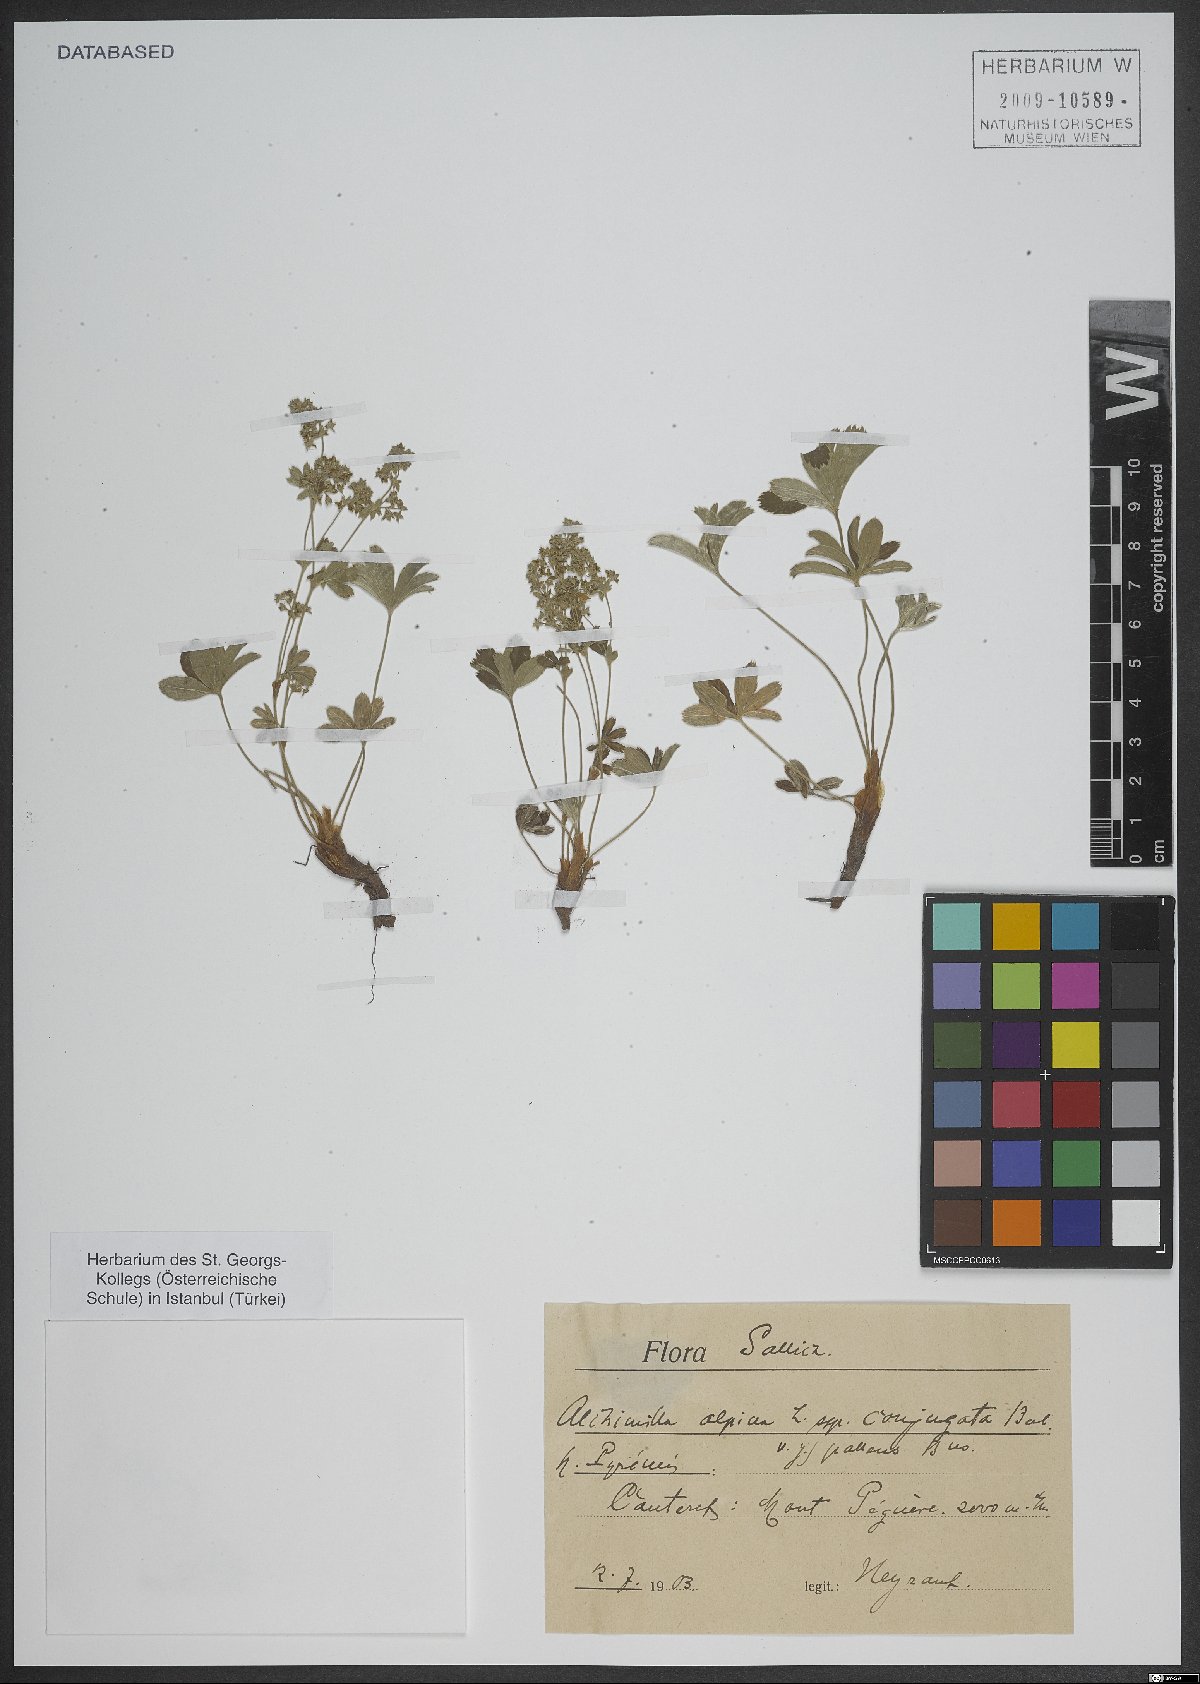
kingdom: Plantae
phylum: Tracheophyta
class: Magnoliopsida
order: Caryophyllales
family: Caryophyllaceae
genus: Silene
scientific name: Silene acaulis
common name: Moss campion
